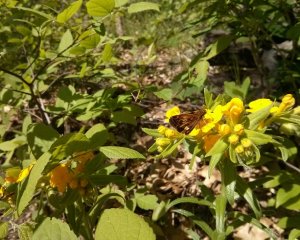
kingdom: Animalia
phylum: Arthropoda
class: Insecta
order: Lepidoptera
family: Hesperiidae
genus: Lon
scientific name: Lon hobomok
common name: Hobomok Skipper
